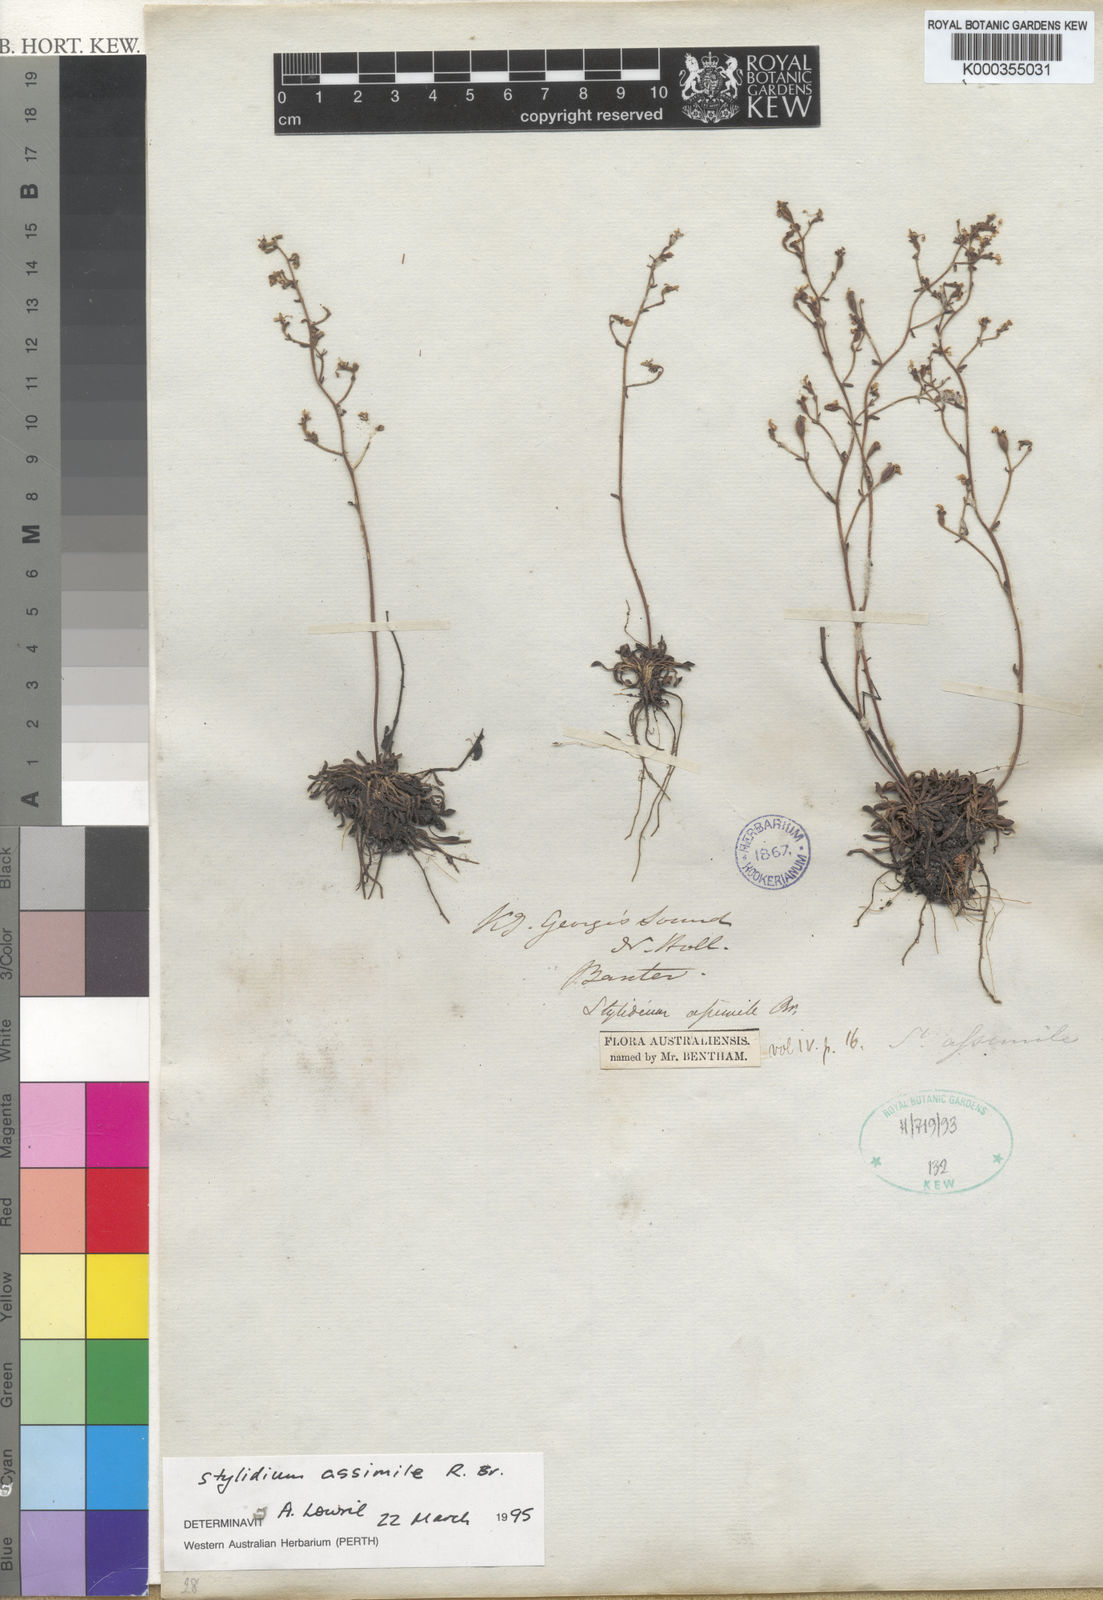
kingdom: Plantae
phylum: Tracheophyta
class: Magnoliopsida
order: Asterales
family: Stylidiaceae
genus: Stylidium
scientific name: Stylidium assimile
